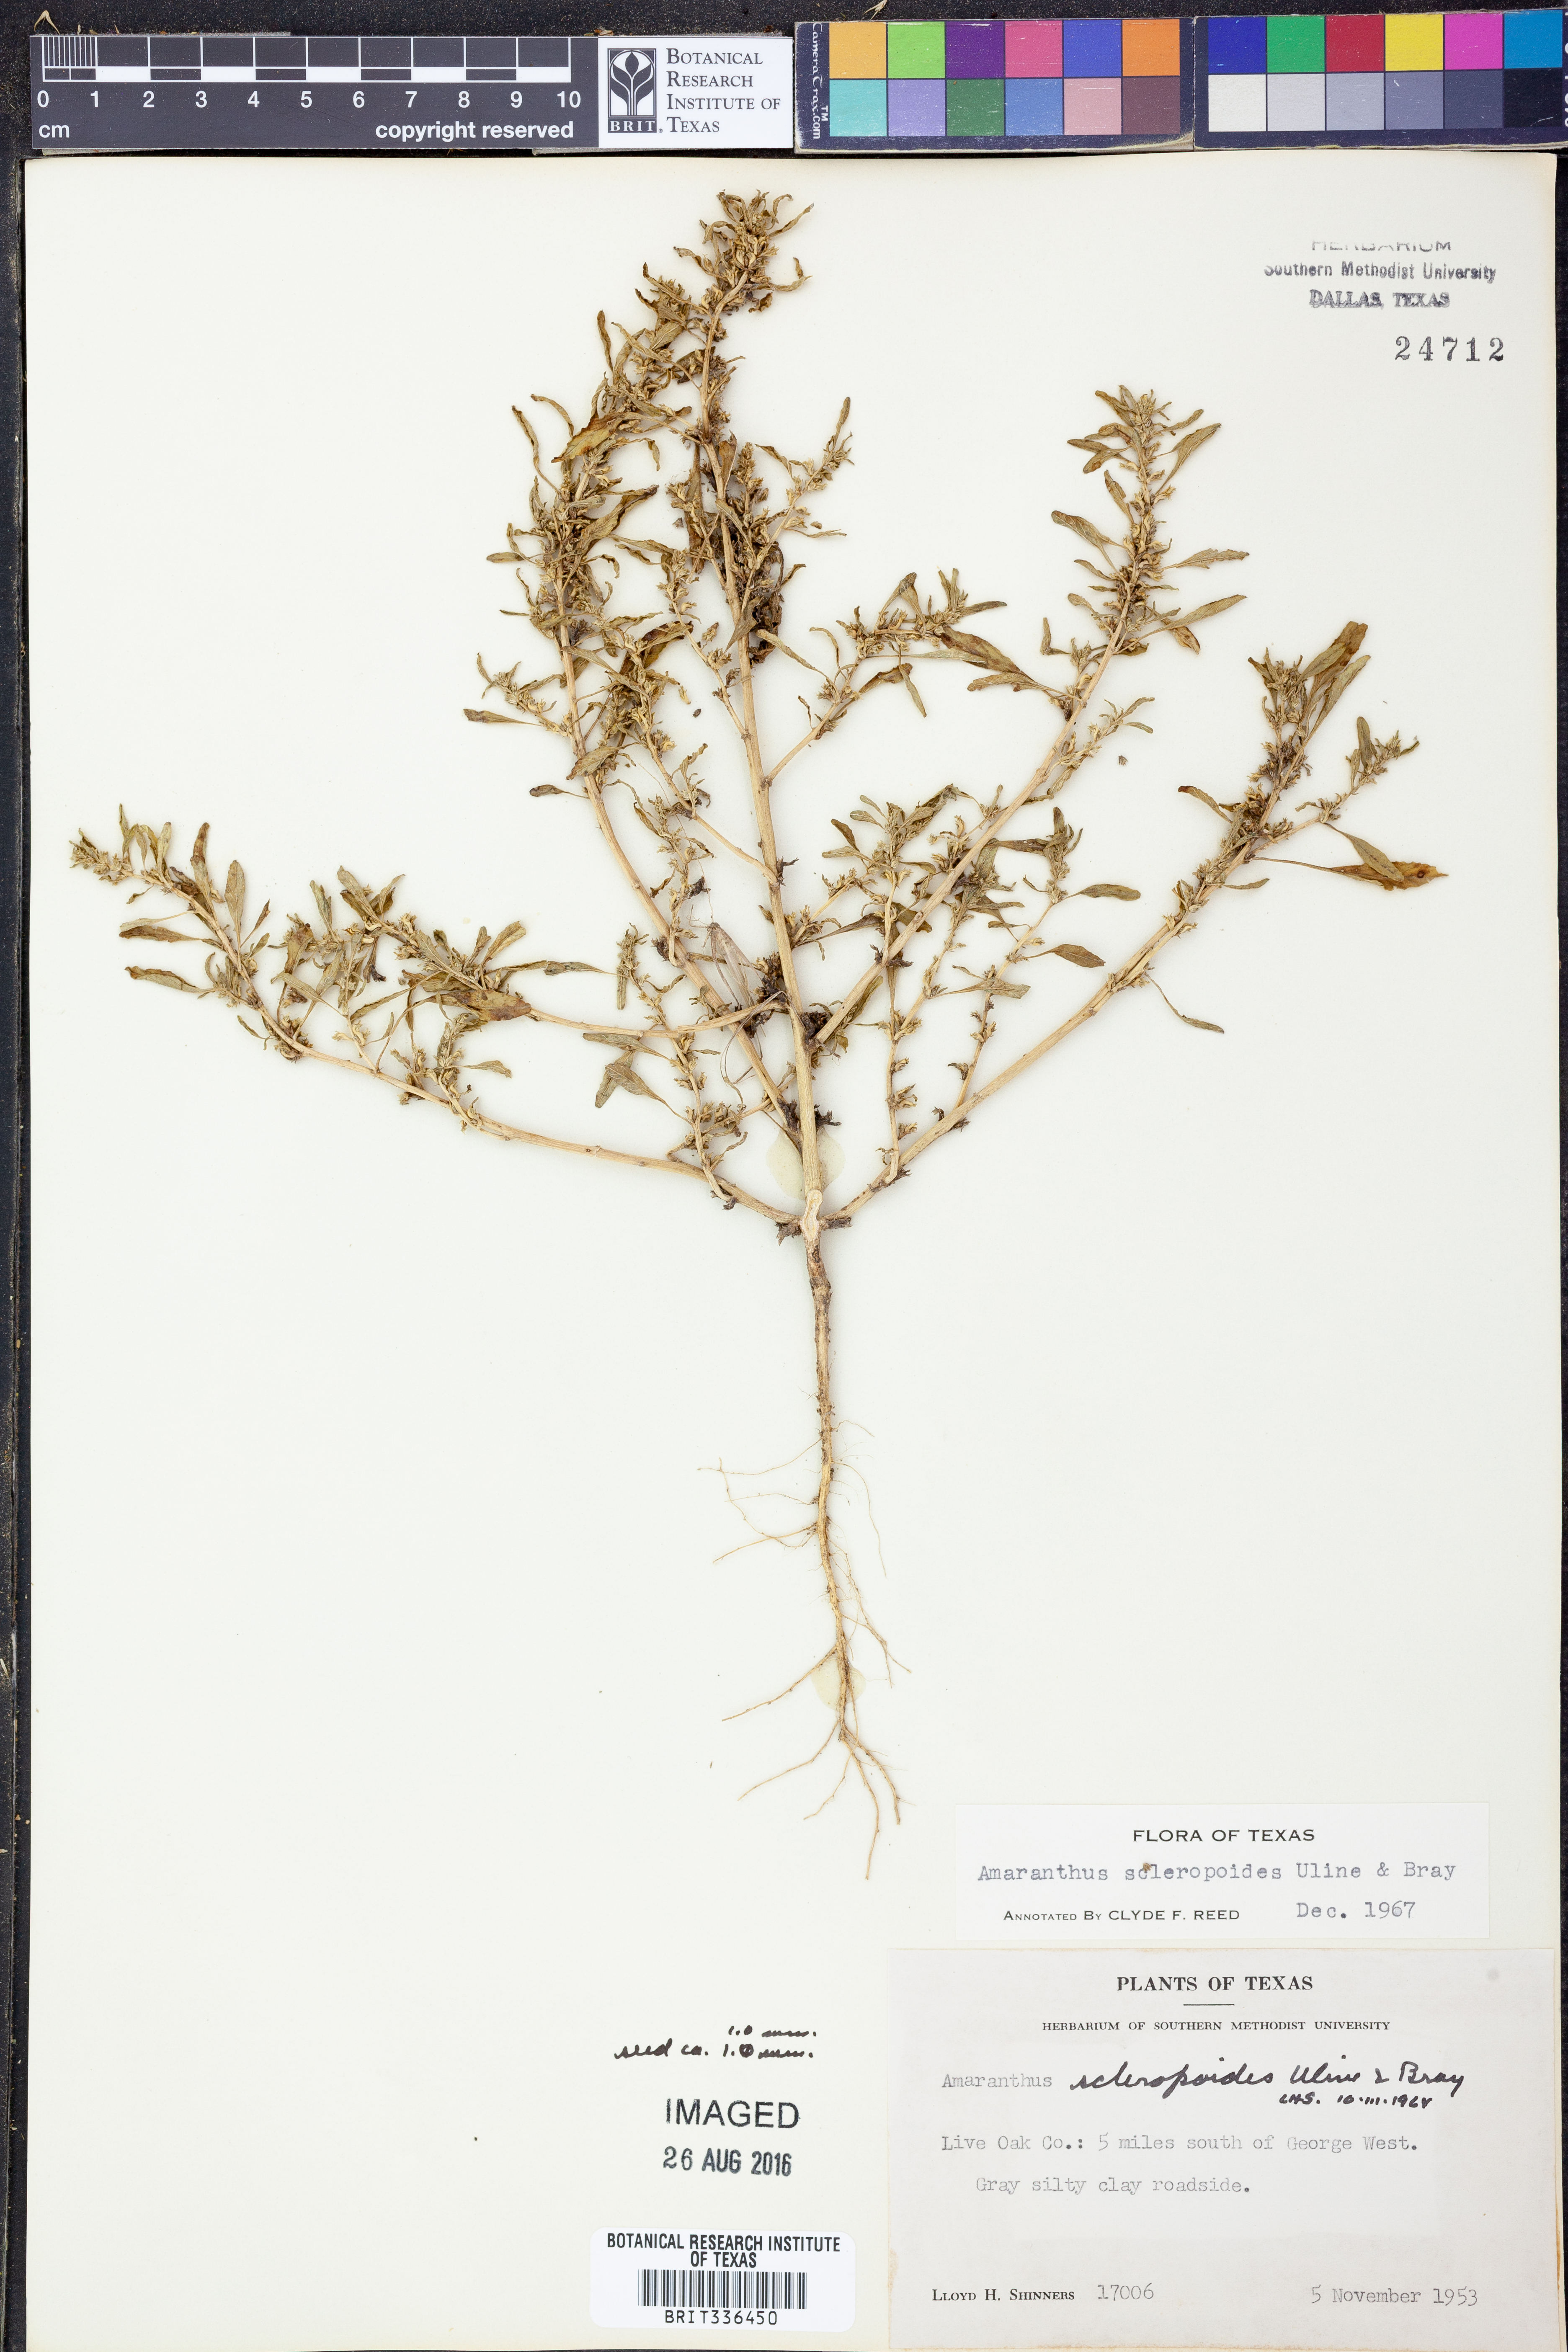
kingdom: Plantae
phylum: Tracheophyta
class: Magnoliopsida
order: Caryophyllales
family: Amaranthaceae
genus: Amaranthus
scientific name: Amaranthus scleropoides
